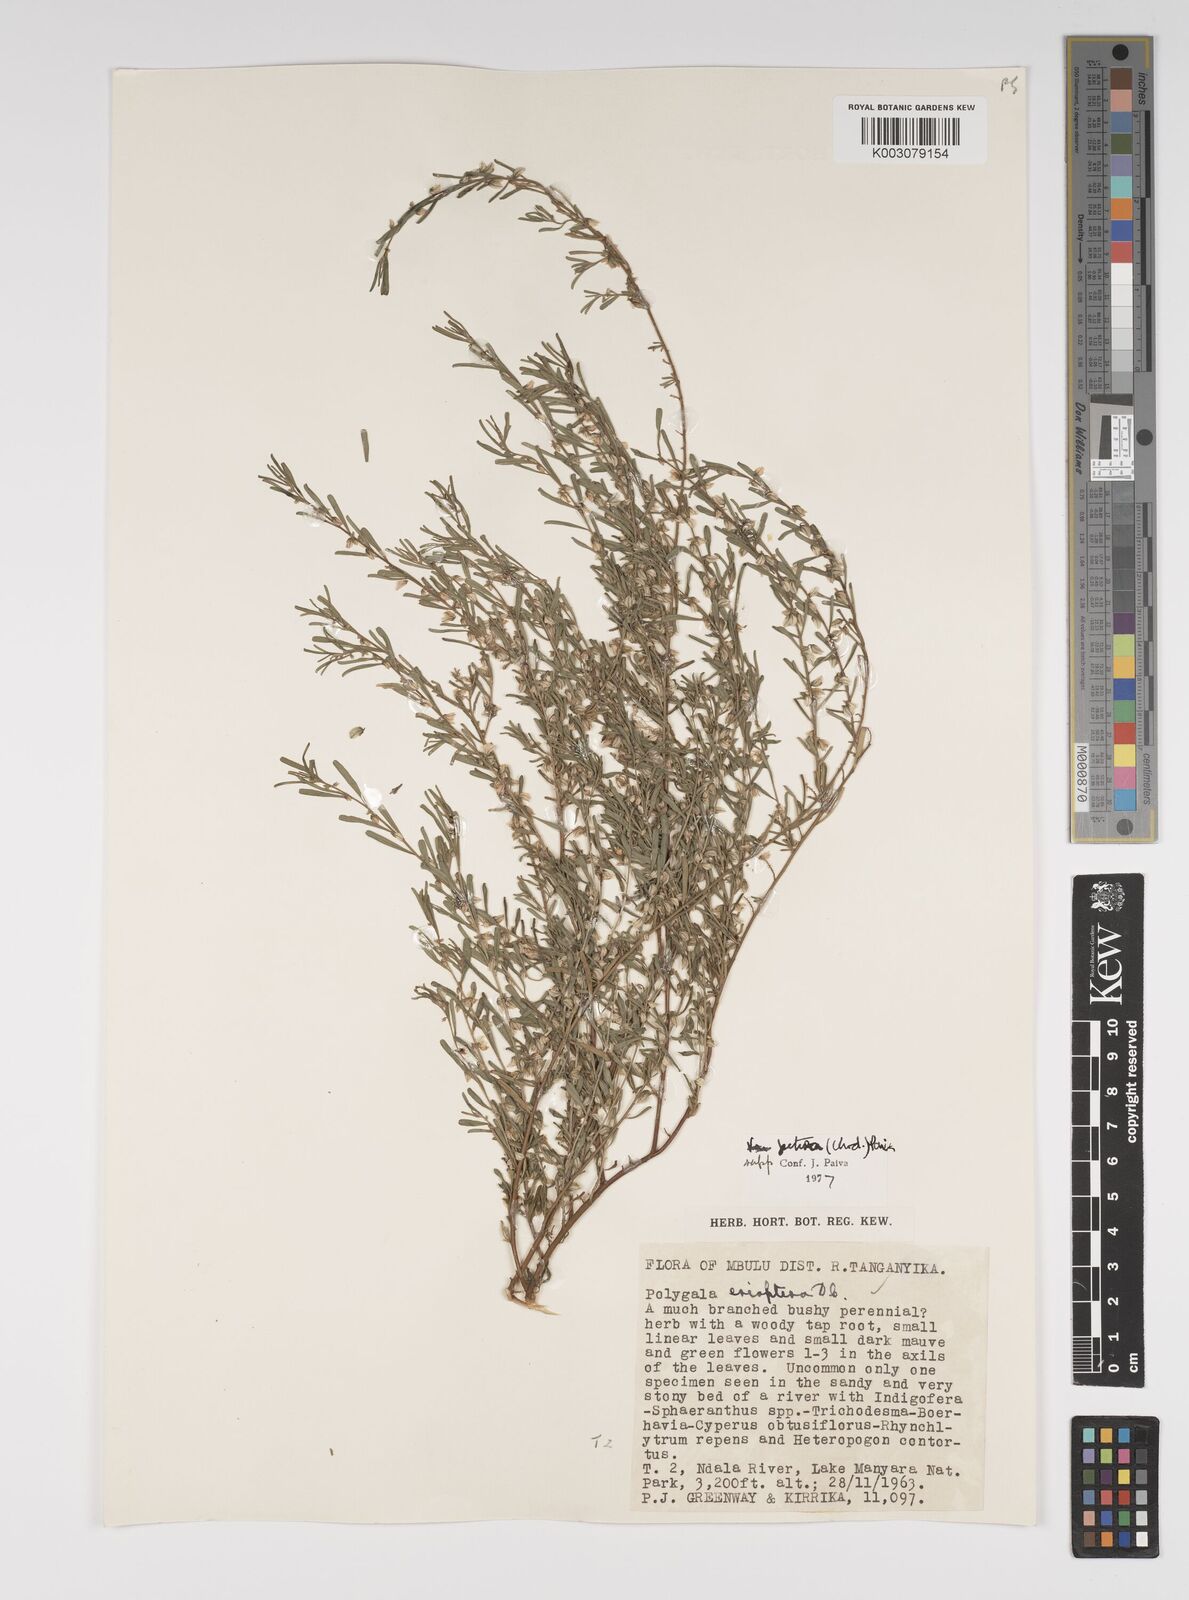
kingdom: Plantae
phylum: Tracheophyta
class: Magnoliopsida
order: Fabales
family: Polygalaceae
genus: Polygala
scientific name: Polygala erioptera
